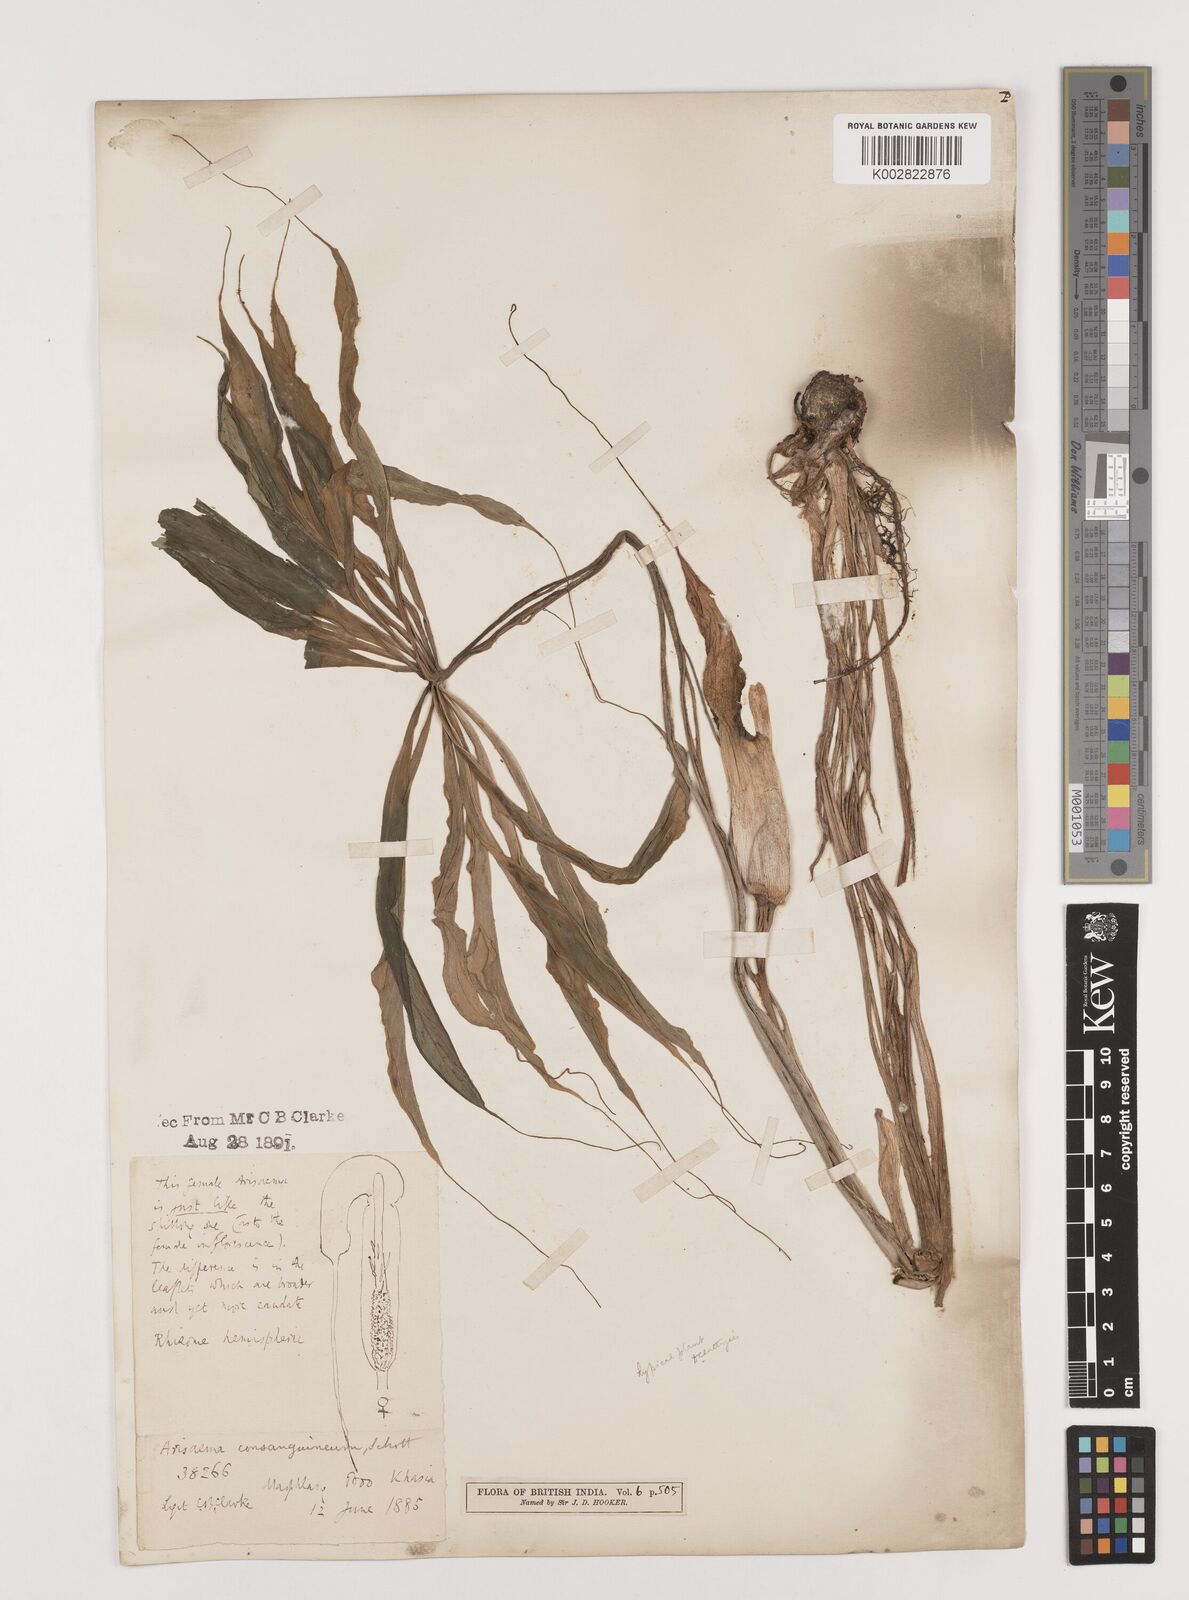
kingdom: Plantae
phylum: Tracheophyta
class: Liliopsida
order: Alismatales
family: Araceae
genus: Arisaema
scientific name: Arisaema erubescens
